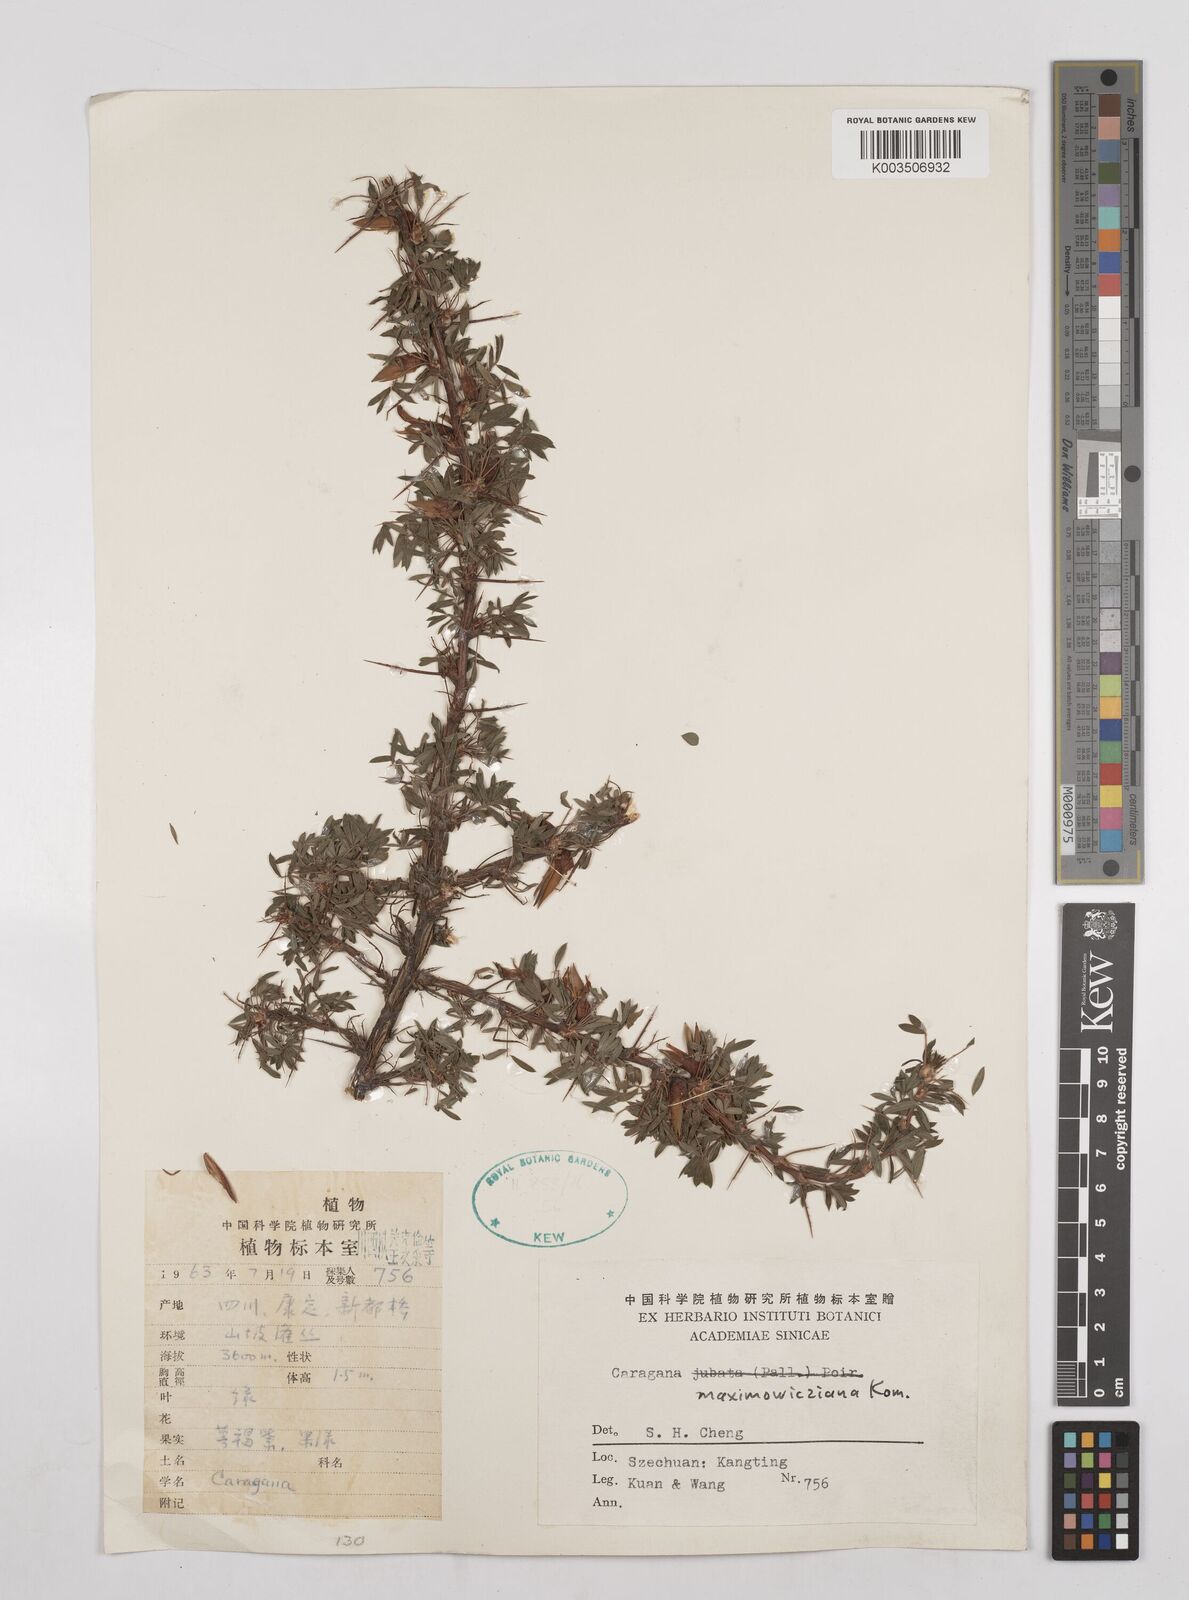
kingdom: Plantae
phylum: Tracheophyta
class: Magnoliopsida
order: Fabales
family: Fabaceae
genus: Caragana
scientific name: Caragana erinacea
